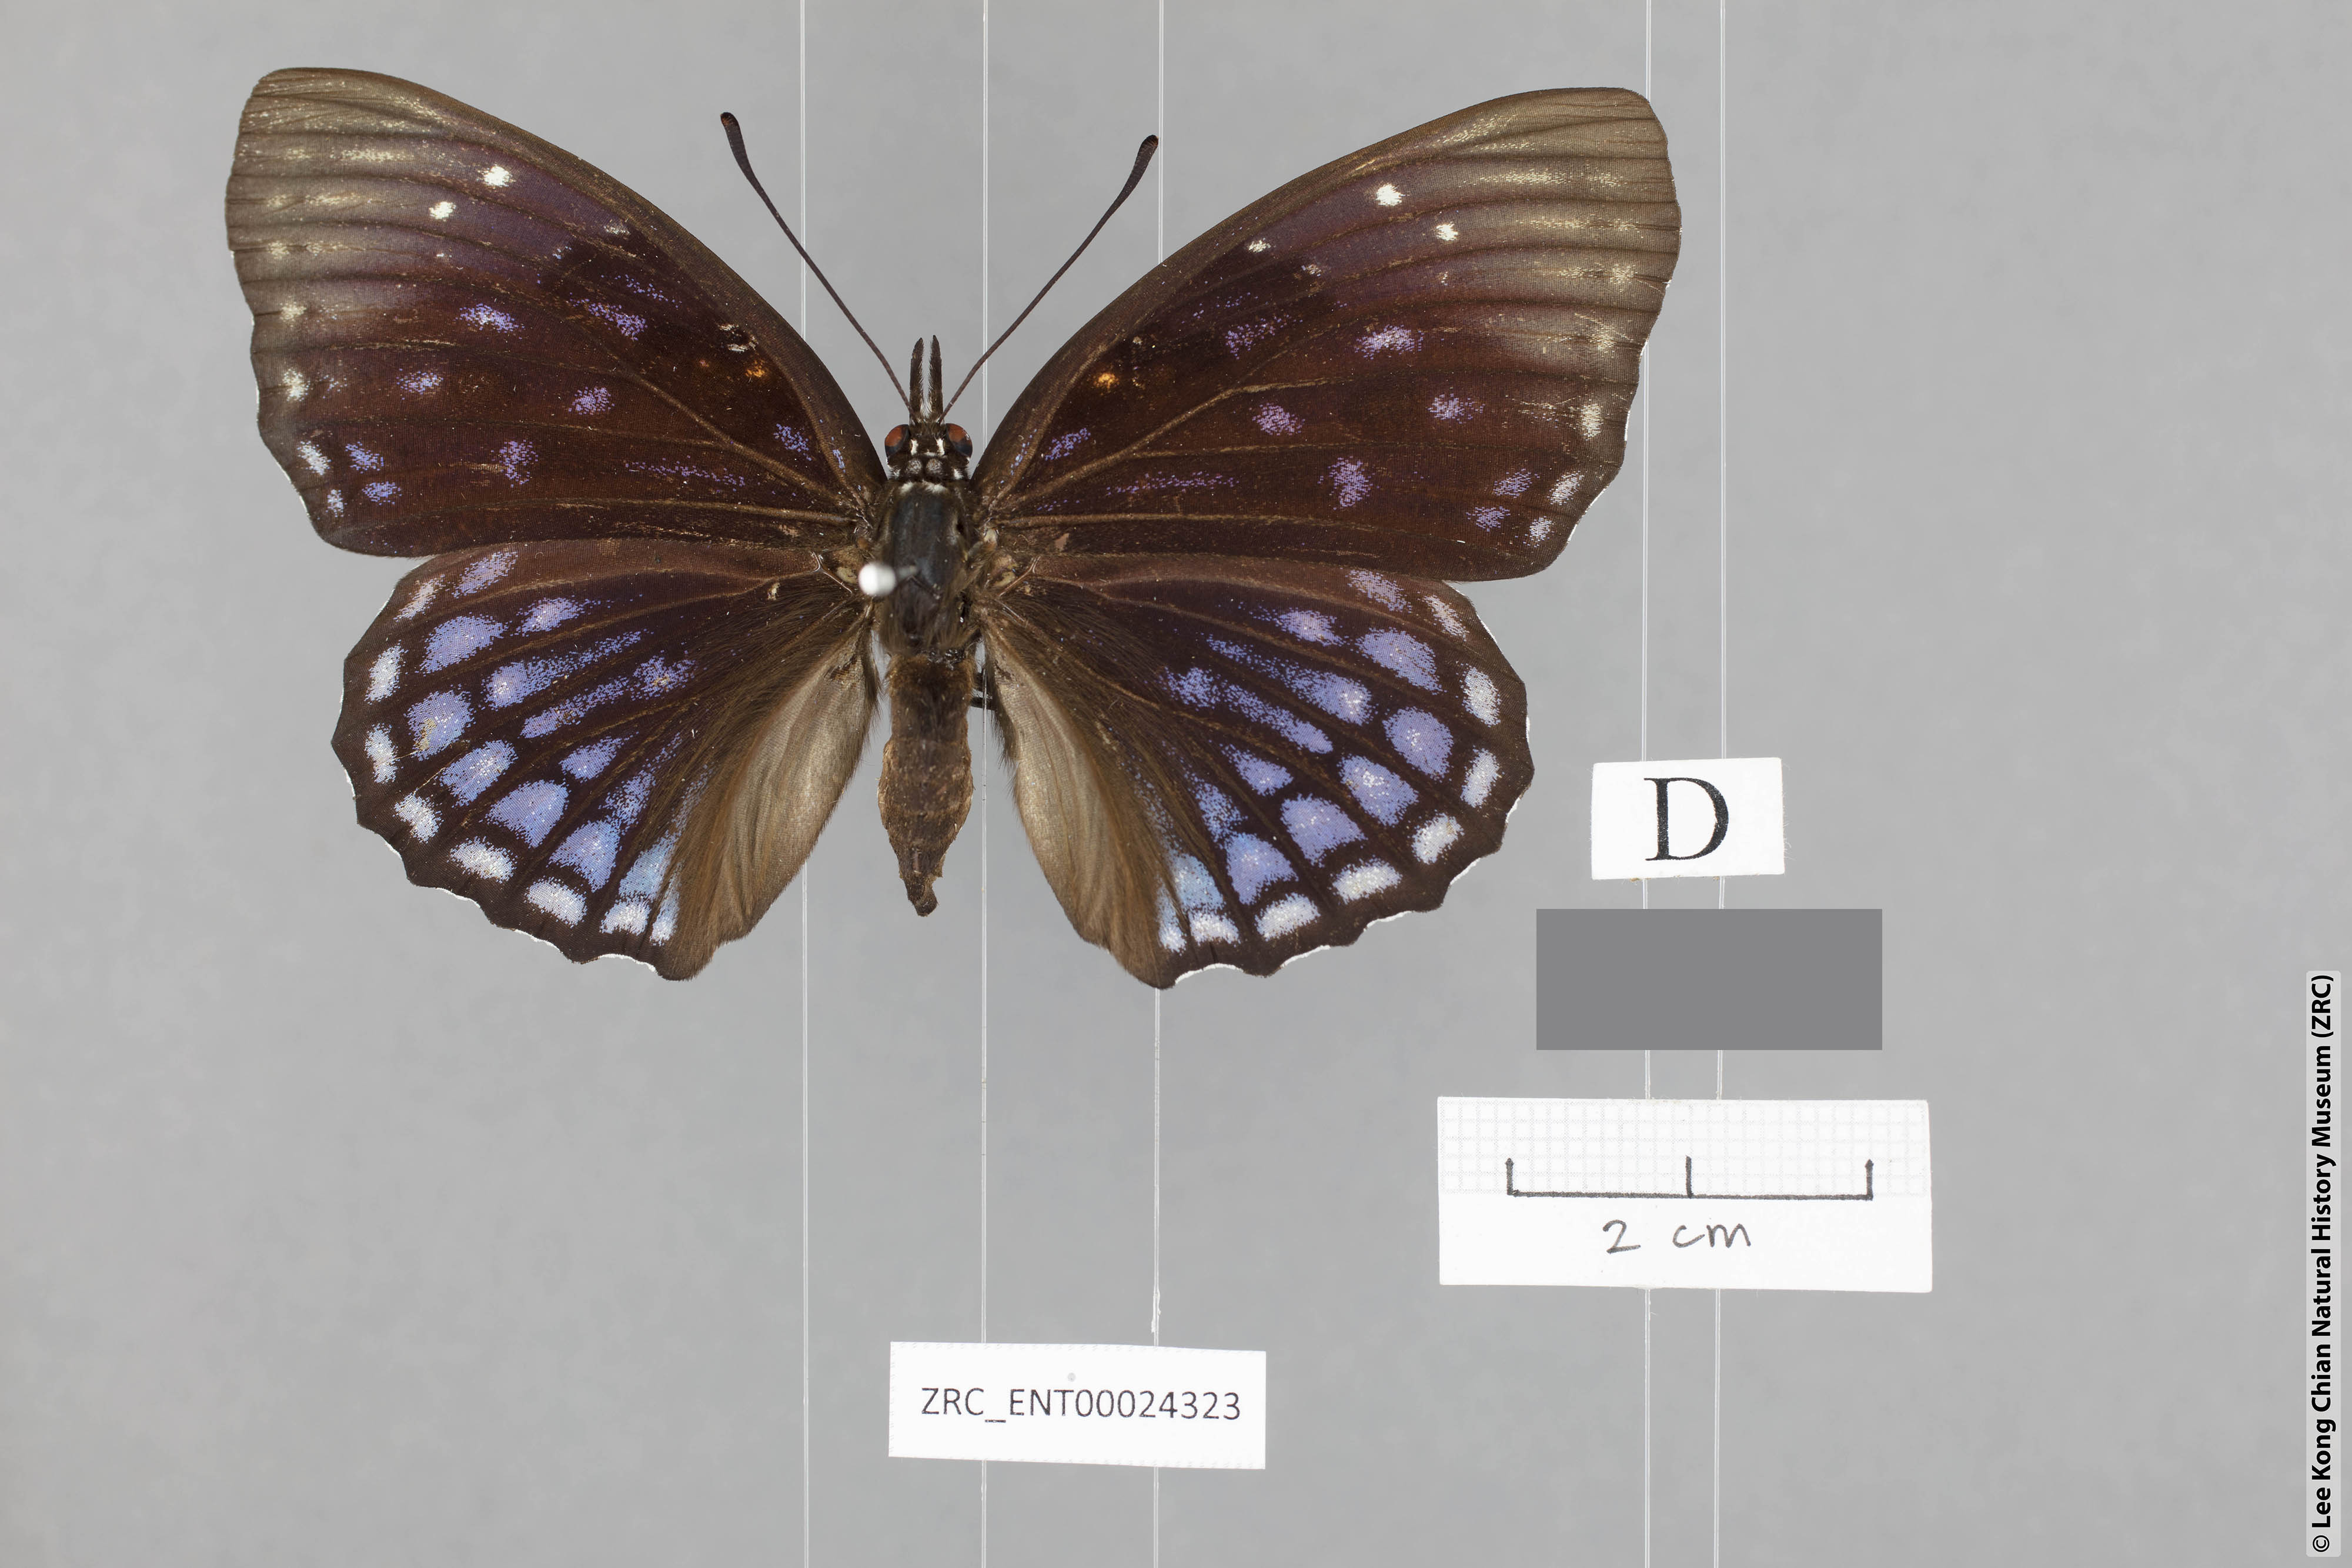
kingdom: Animalia
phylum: Arthropoda
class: Insecta
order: Lepidoptera
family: Nymphalidae
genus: Sephisa
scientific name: Sephisa chandra
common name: Eastern courtier
